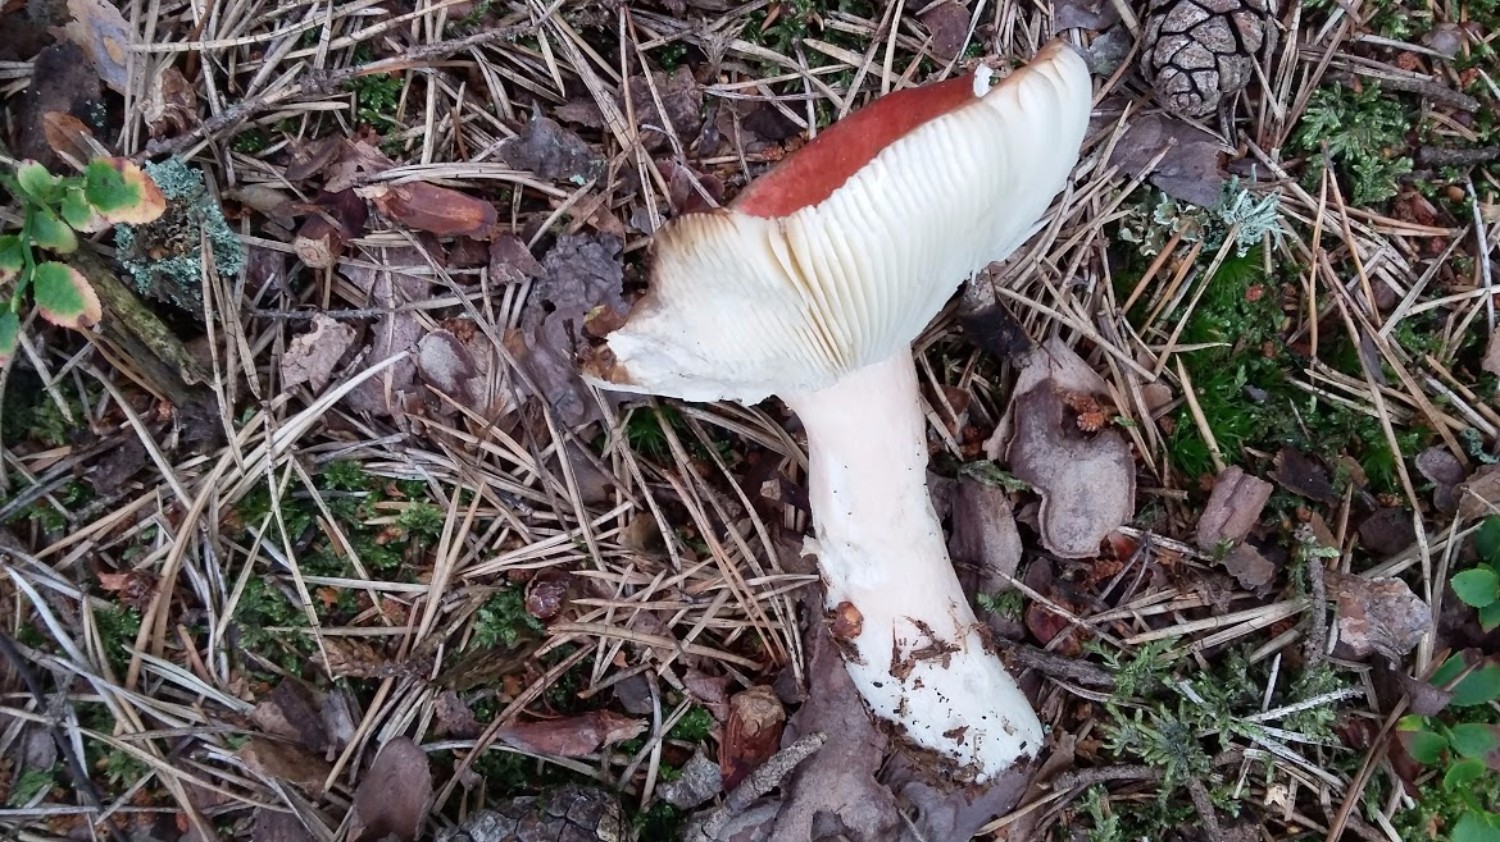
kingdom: Fungi
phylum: Basidiomycota
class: Agaricomycetes
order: Russulales
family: Russulaceae
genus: Russula
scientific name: Russula paludosa
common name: prægtig skørhat
